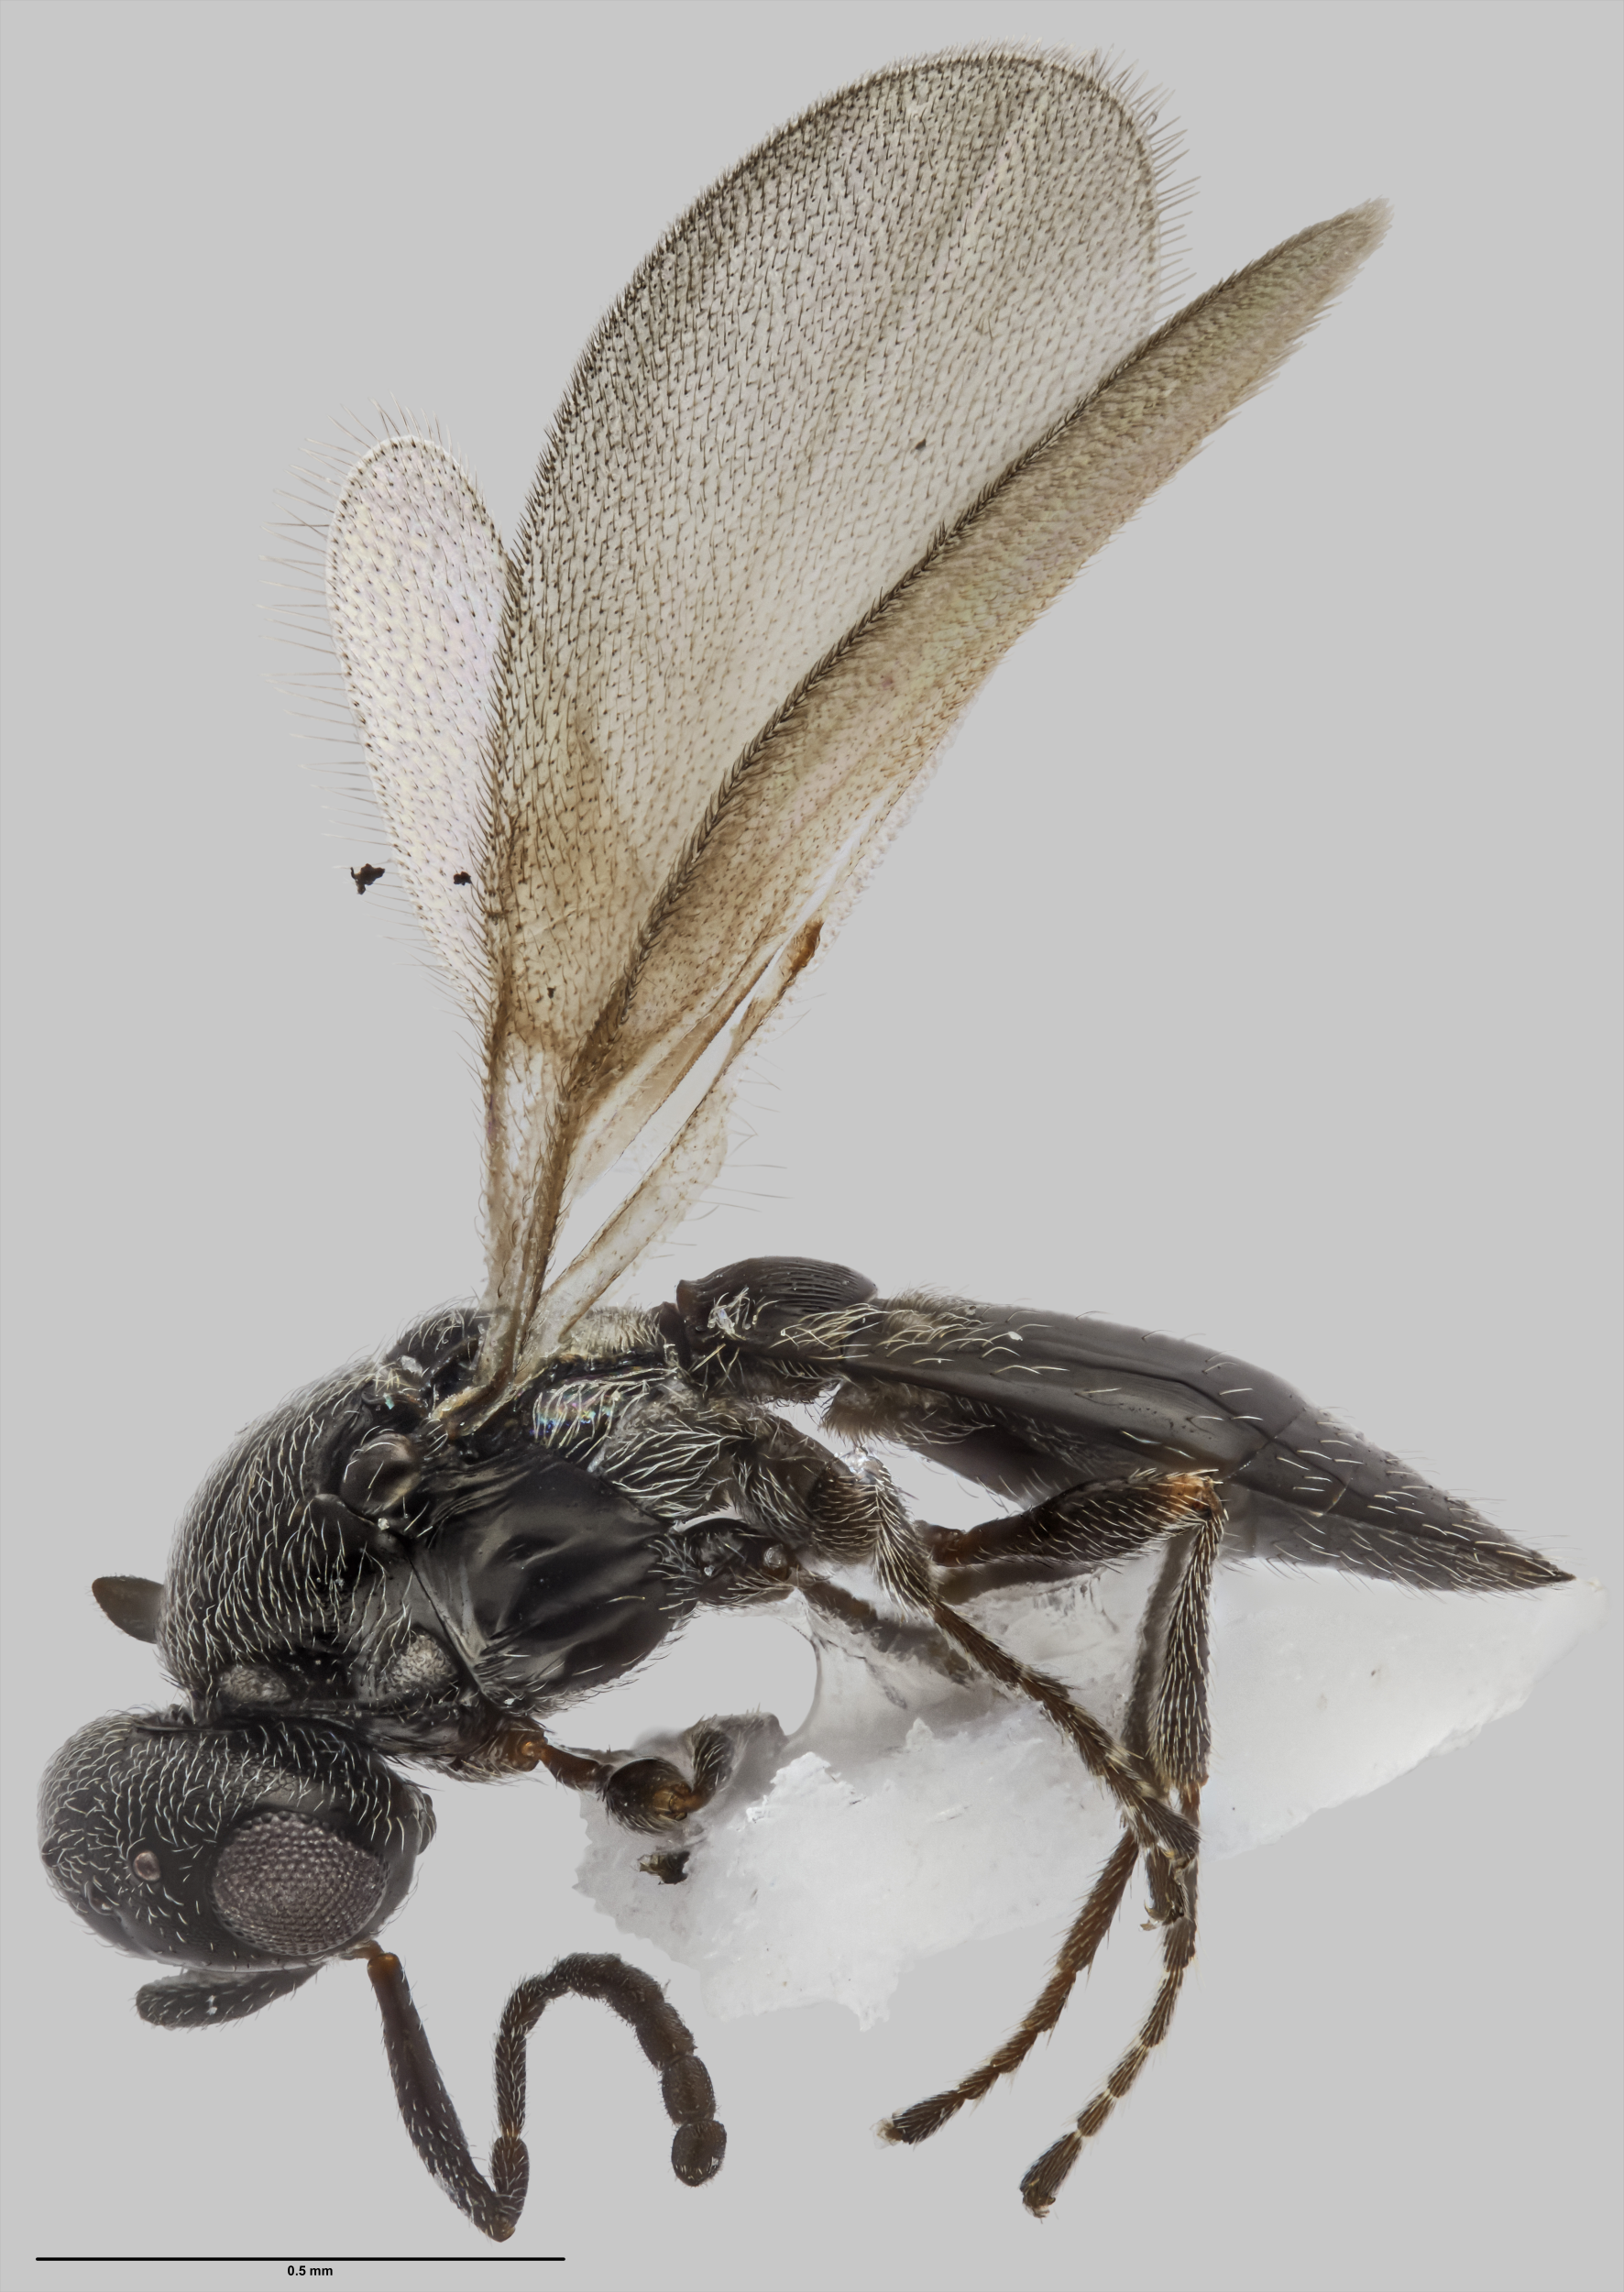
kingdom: Animalia
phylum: Arthropoda
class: Insecta
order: Hymenoptera
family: Platygastridae
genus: Zelostemma
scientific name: Zelostemma
